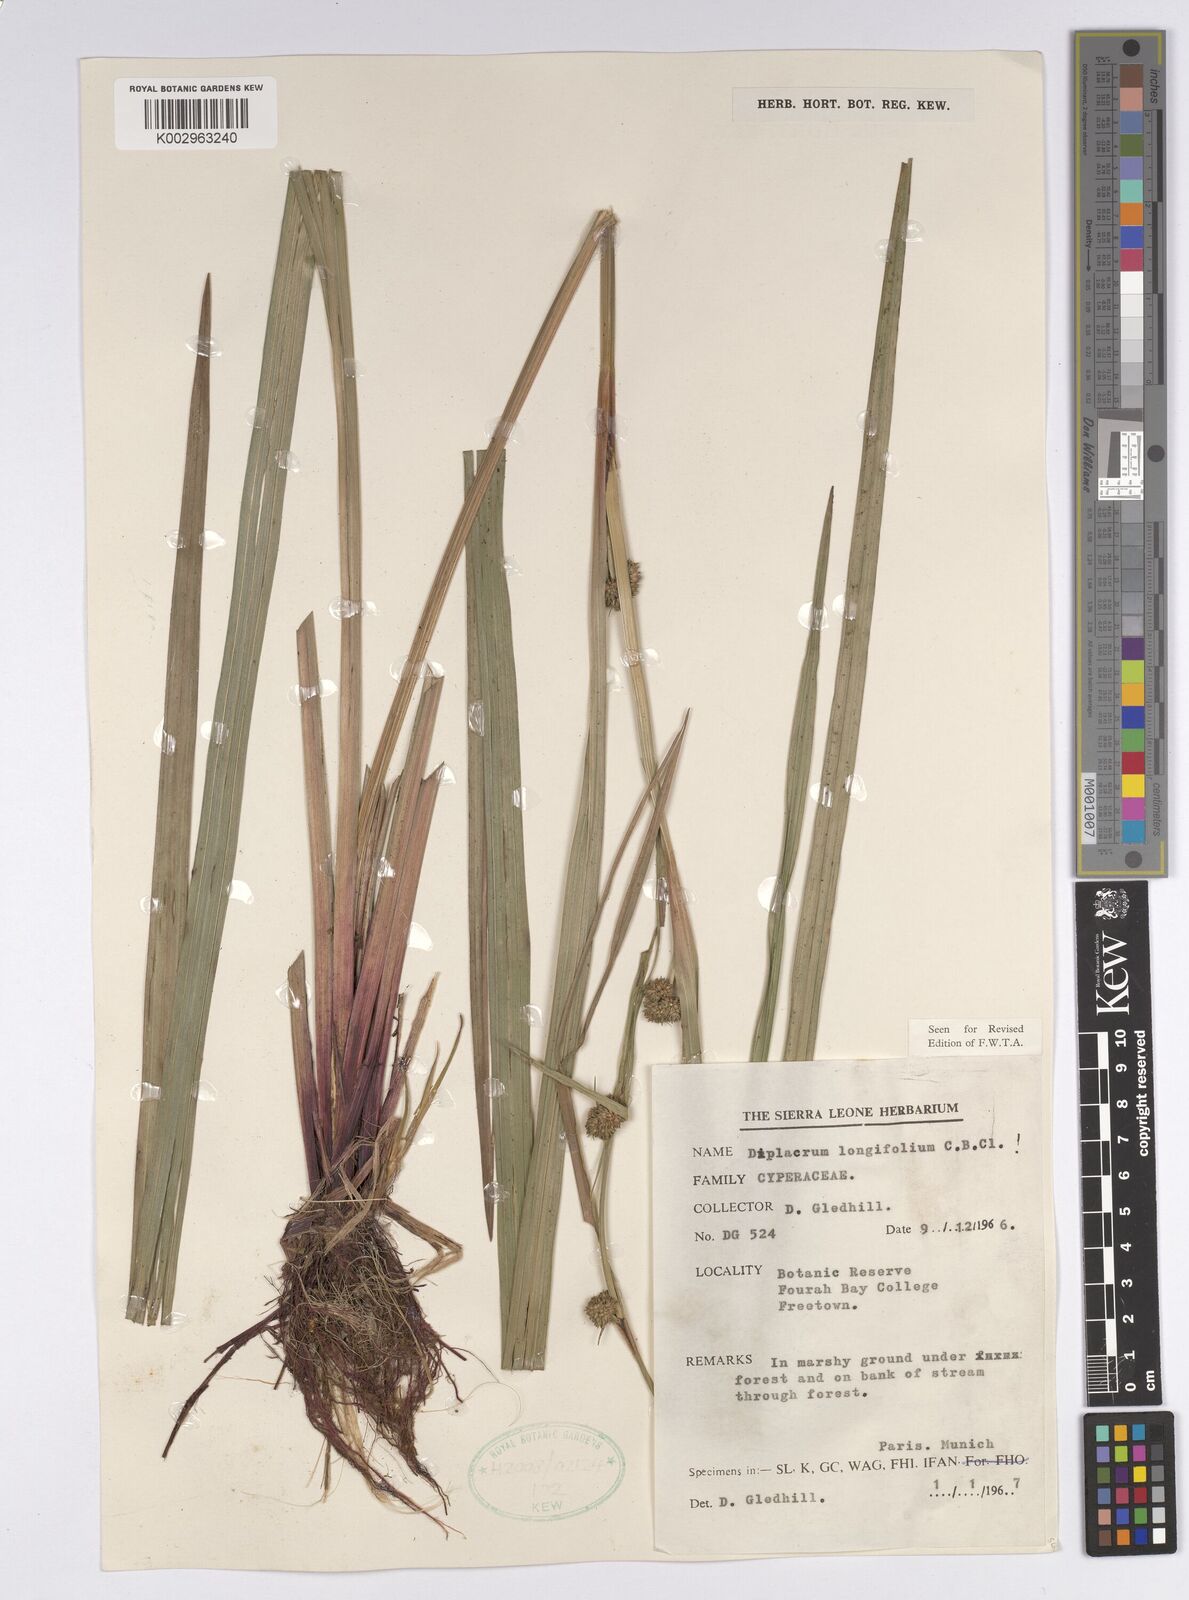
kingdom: Plantae
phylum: Tracheophyta
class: Liliopsida
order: Poales
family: Cyperaceae
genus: Diplacrum
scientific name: Diplacrum capitatum
